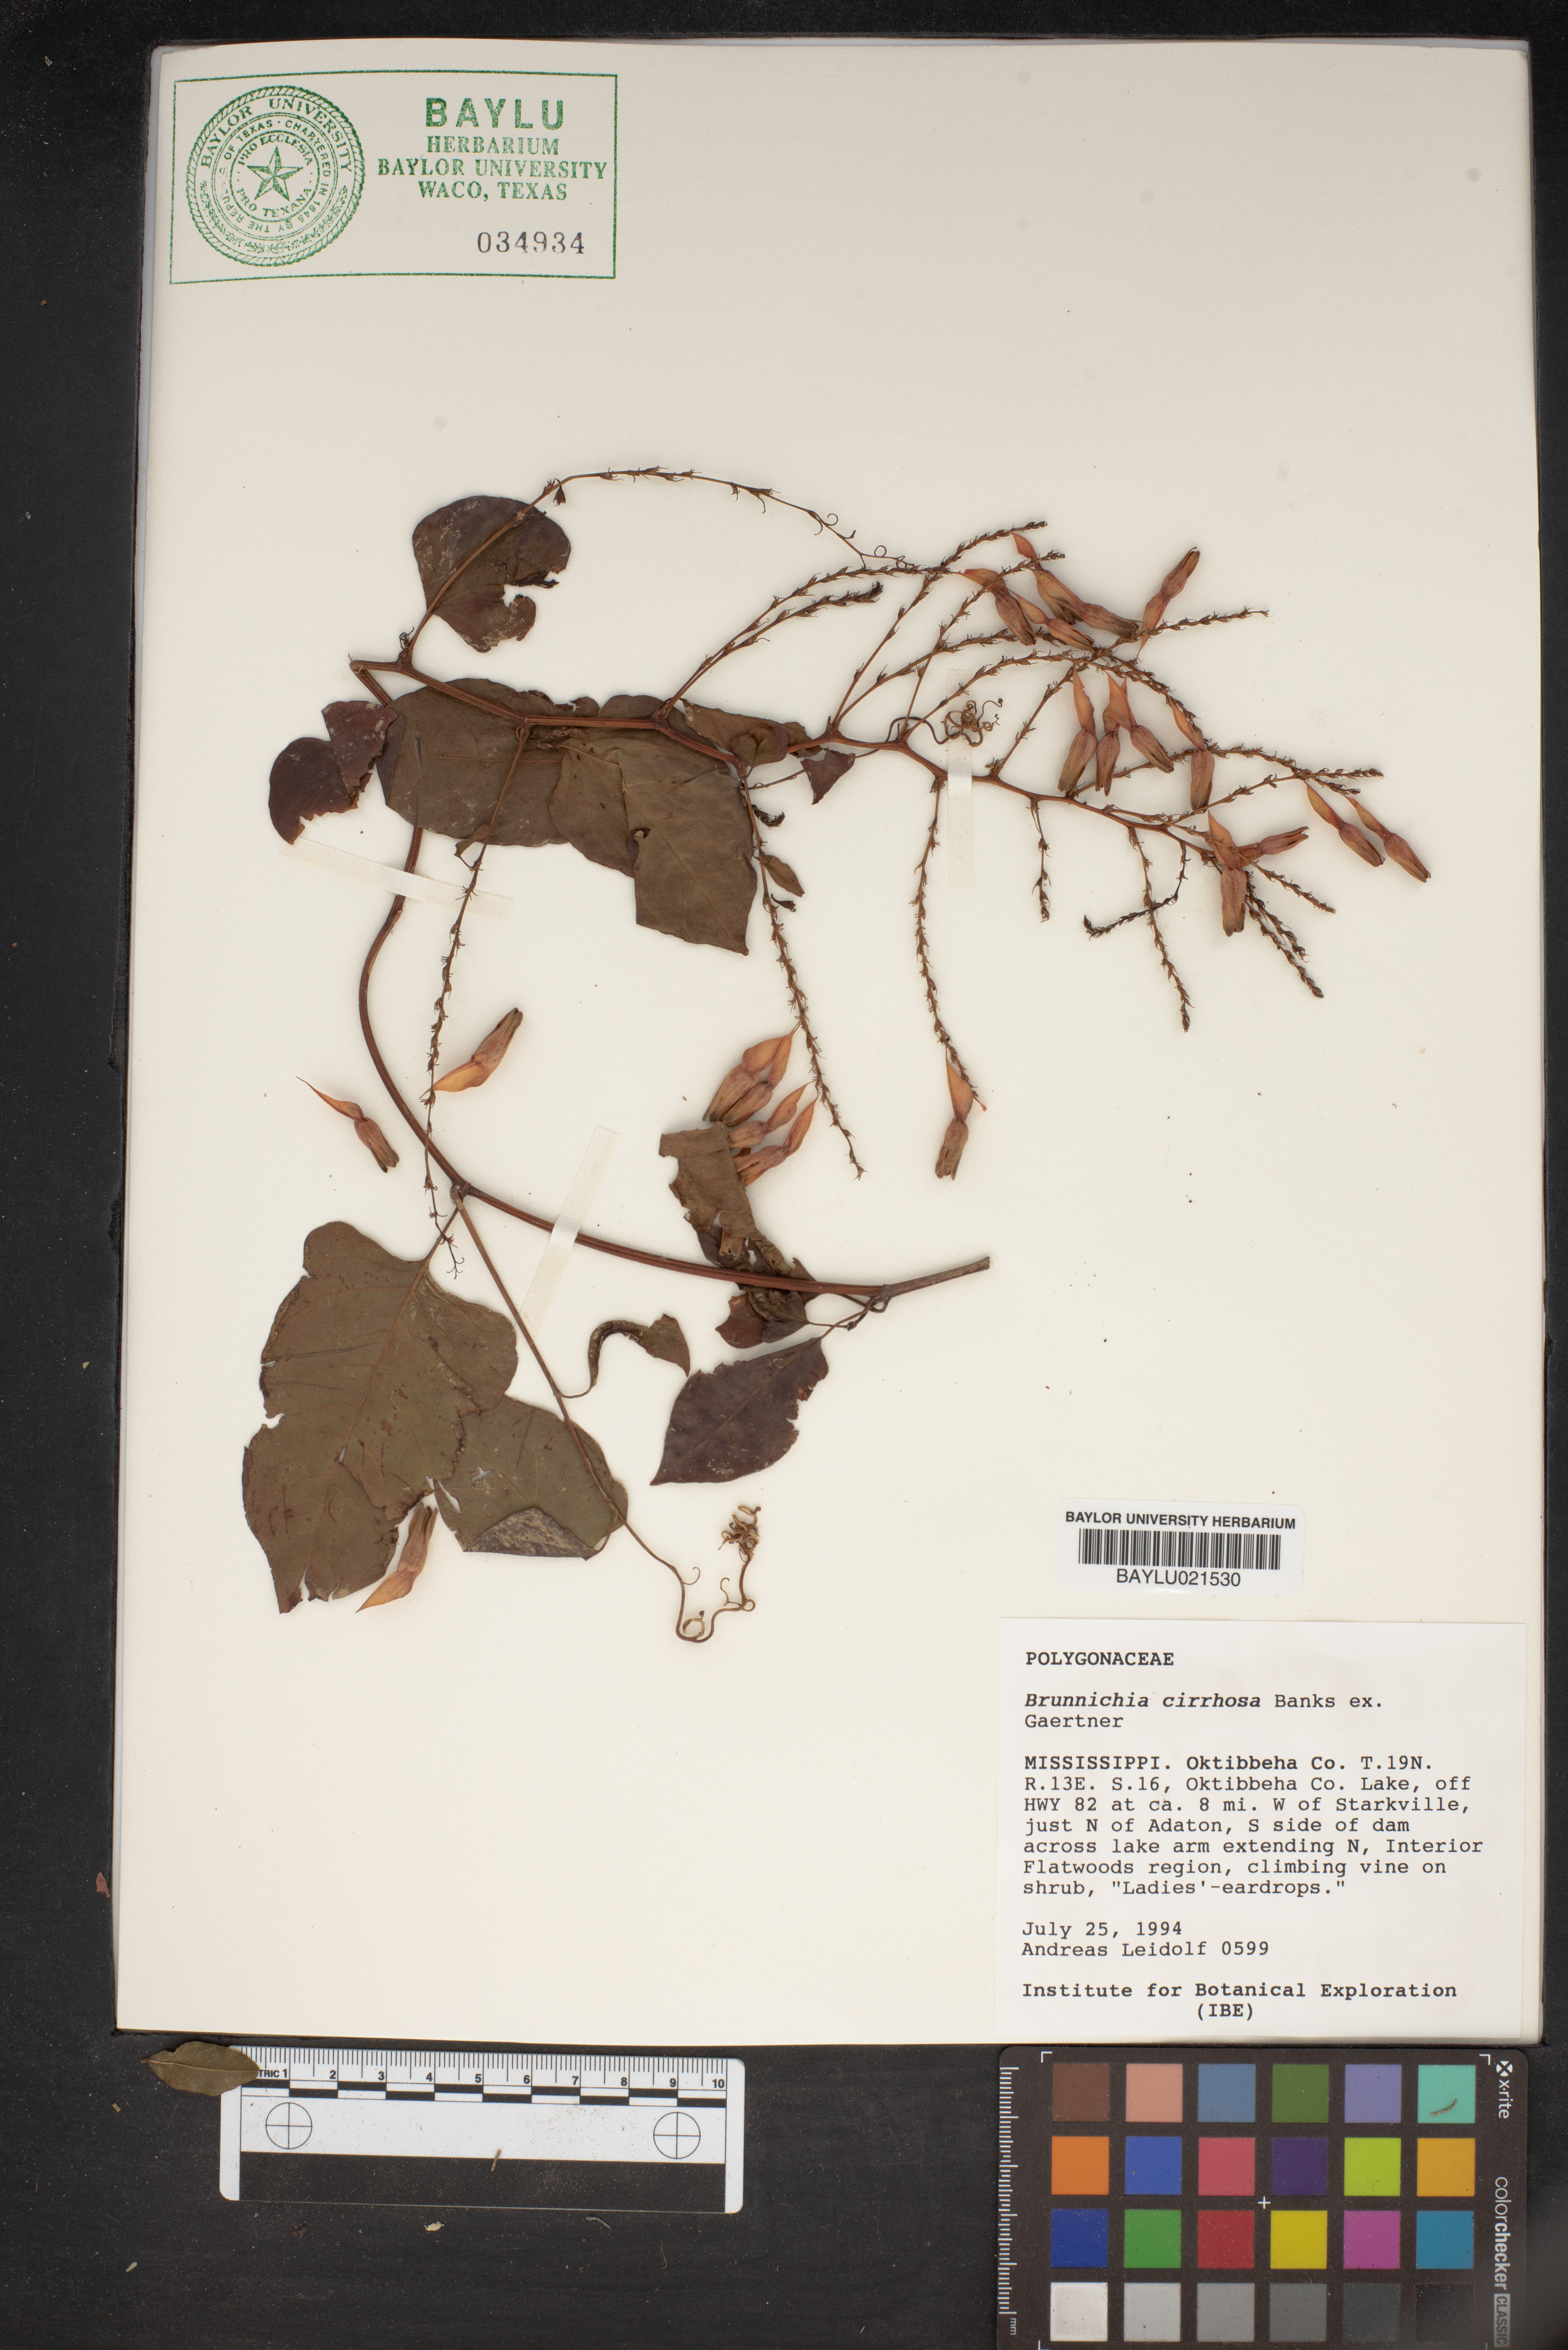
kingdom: Plantae
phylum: Tracheophyta
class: Magnoliopsida
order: Caryophyllales
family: Polygonaceae
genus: Brunnichia
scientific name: Brunnichia ovata
